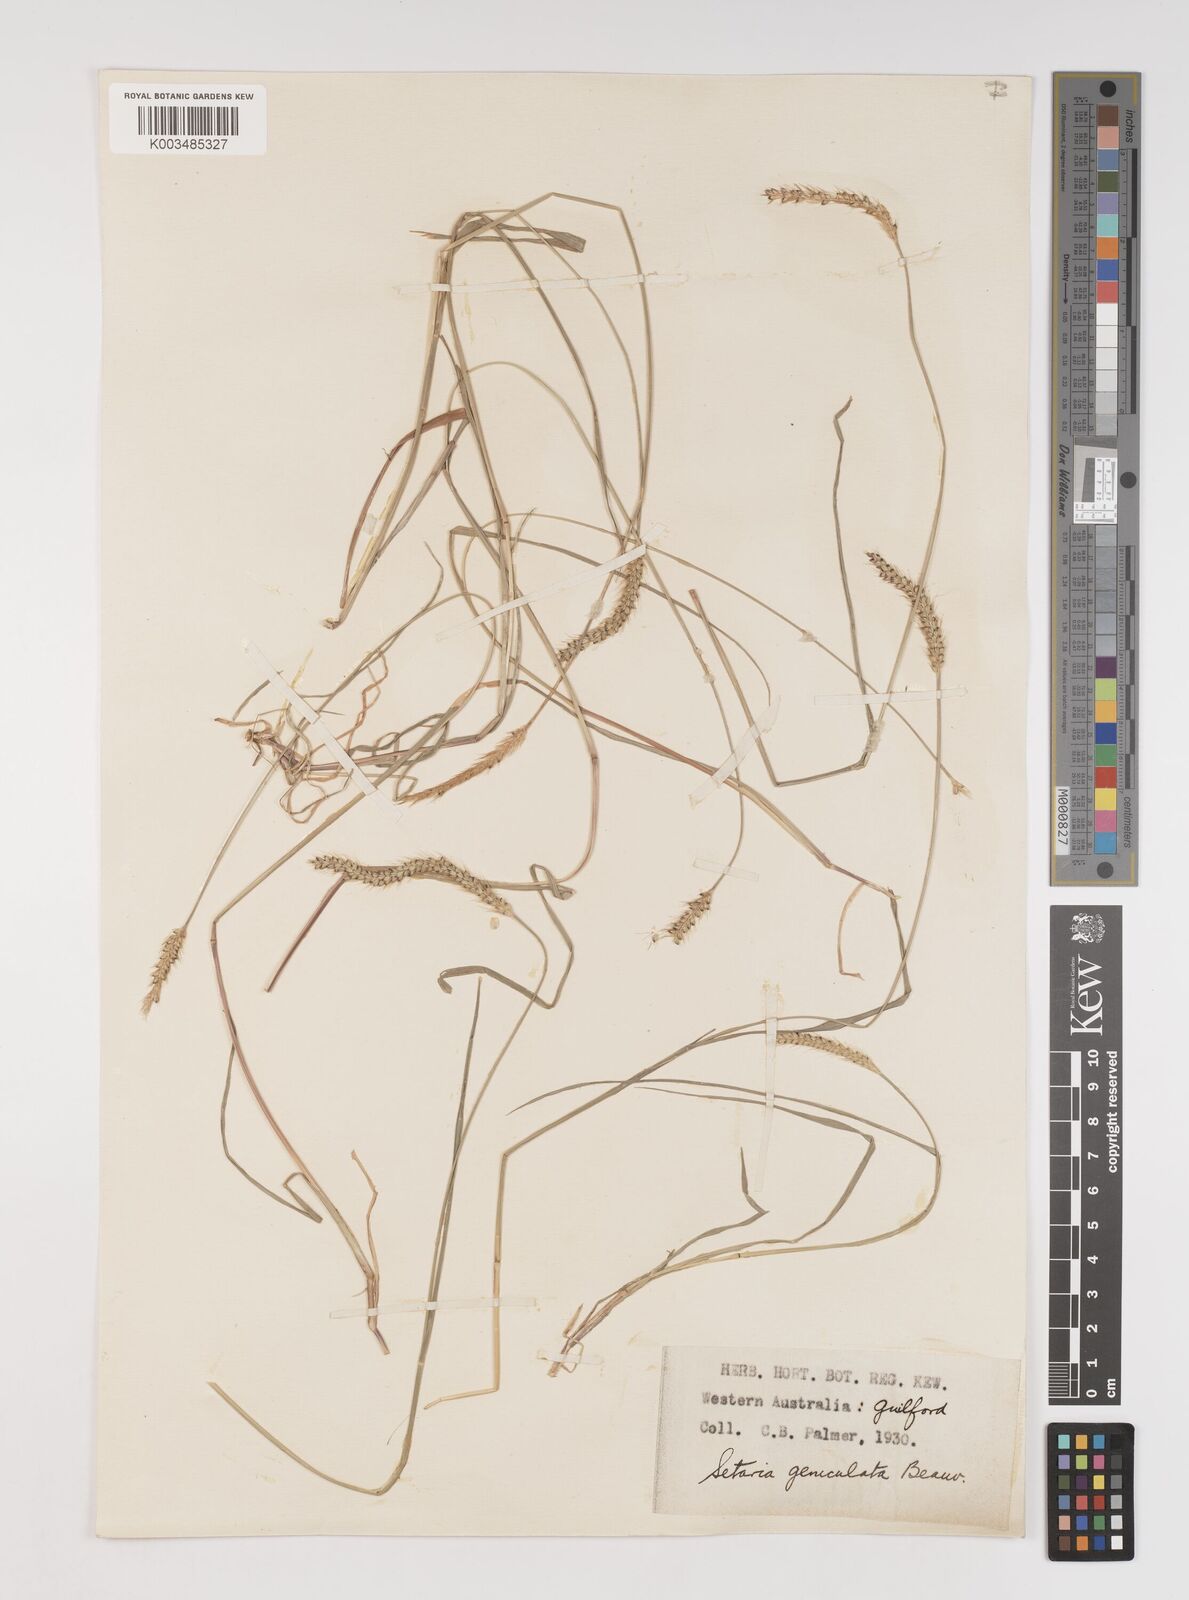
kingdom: Plantae
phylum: Tracheophyta
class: Liliopsida
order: Poales
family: Poaceae
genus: Setaria
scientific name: Setaria parviflora
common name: Knotroot bristle-grass
